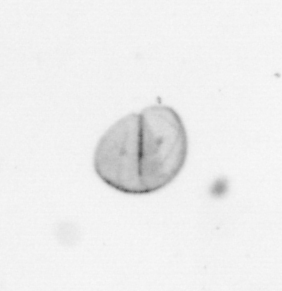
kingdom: Chromista
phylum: Ochrophyta
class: Bacillariophyceae
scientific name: Bacillariophyceae
